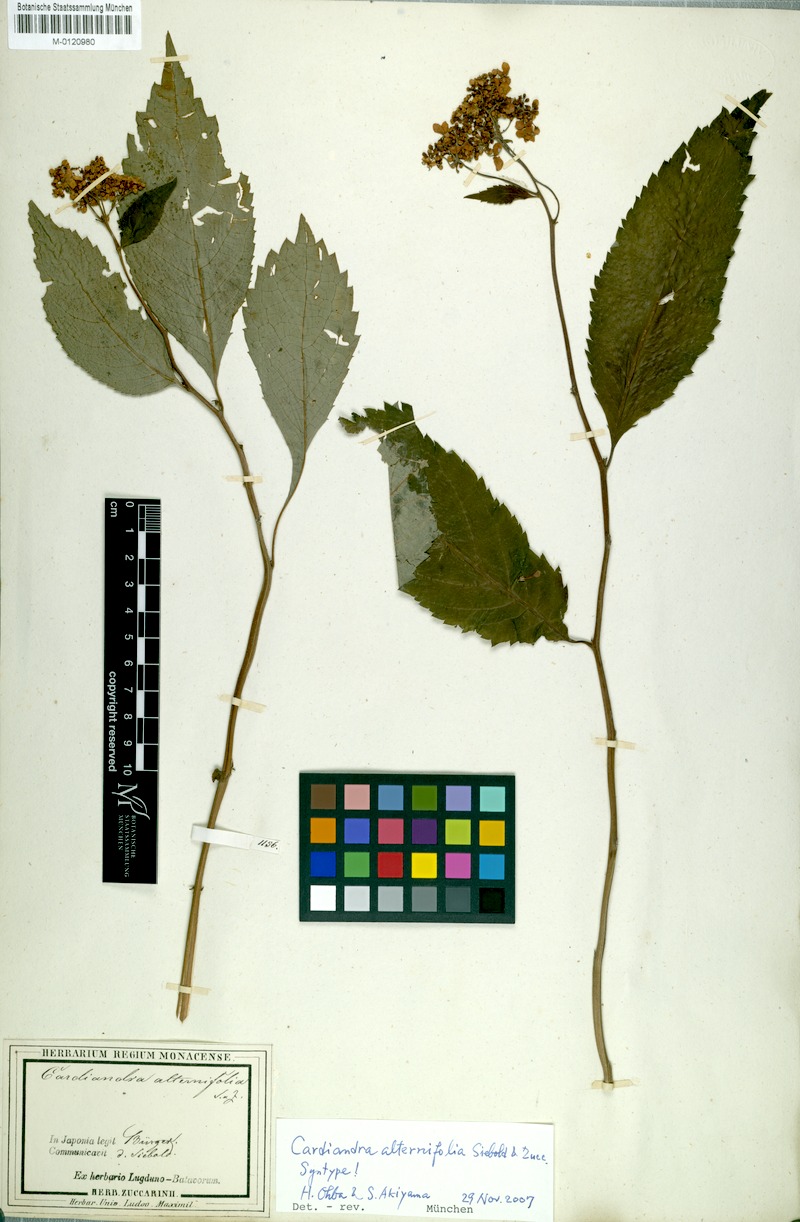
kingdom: Plantae
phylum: Tracheophyta
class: Magnoliopsida
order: Cornales
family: Hydrangeaceae
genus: Hydrangea
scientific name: Hydrangea alternifolia
